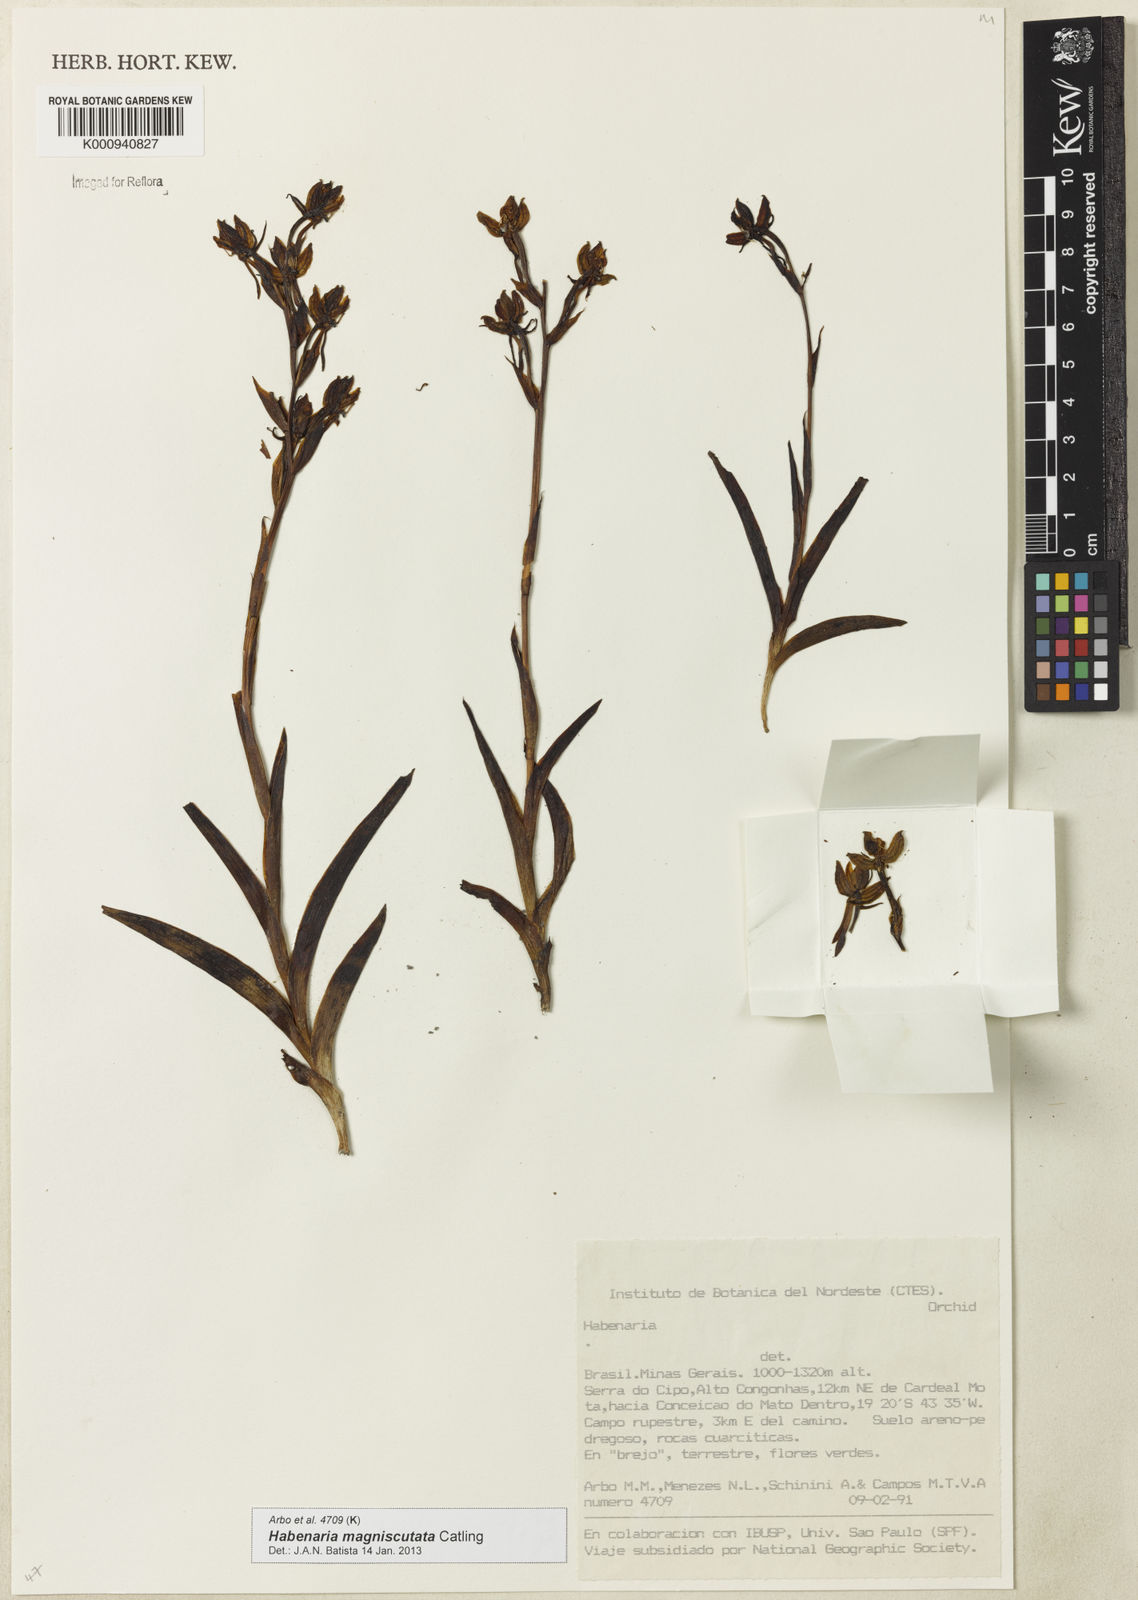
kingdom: Plantae
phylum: Tracheophyta
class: Liliopsida
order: Asparagales
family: Orchidaceae
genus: Habenaria
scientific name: Habenaria magniscutata
